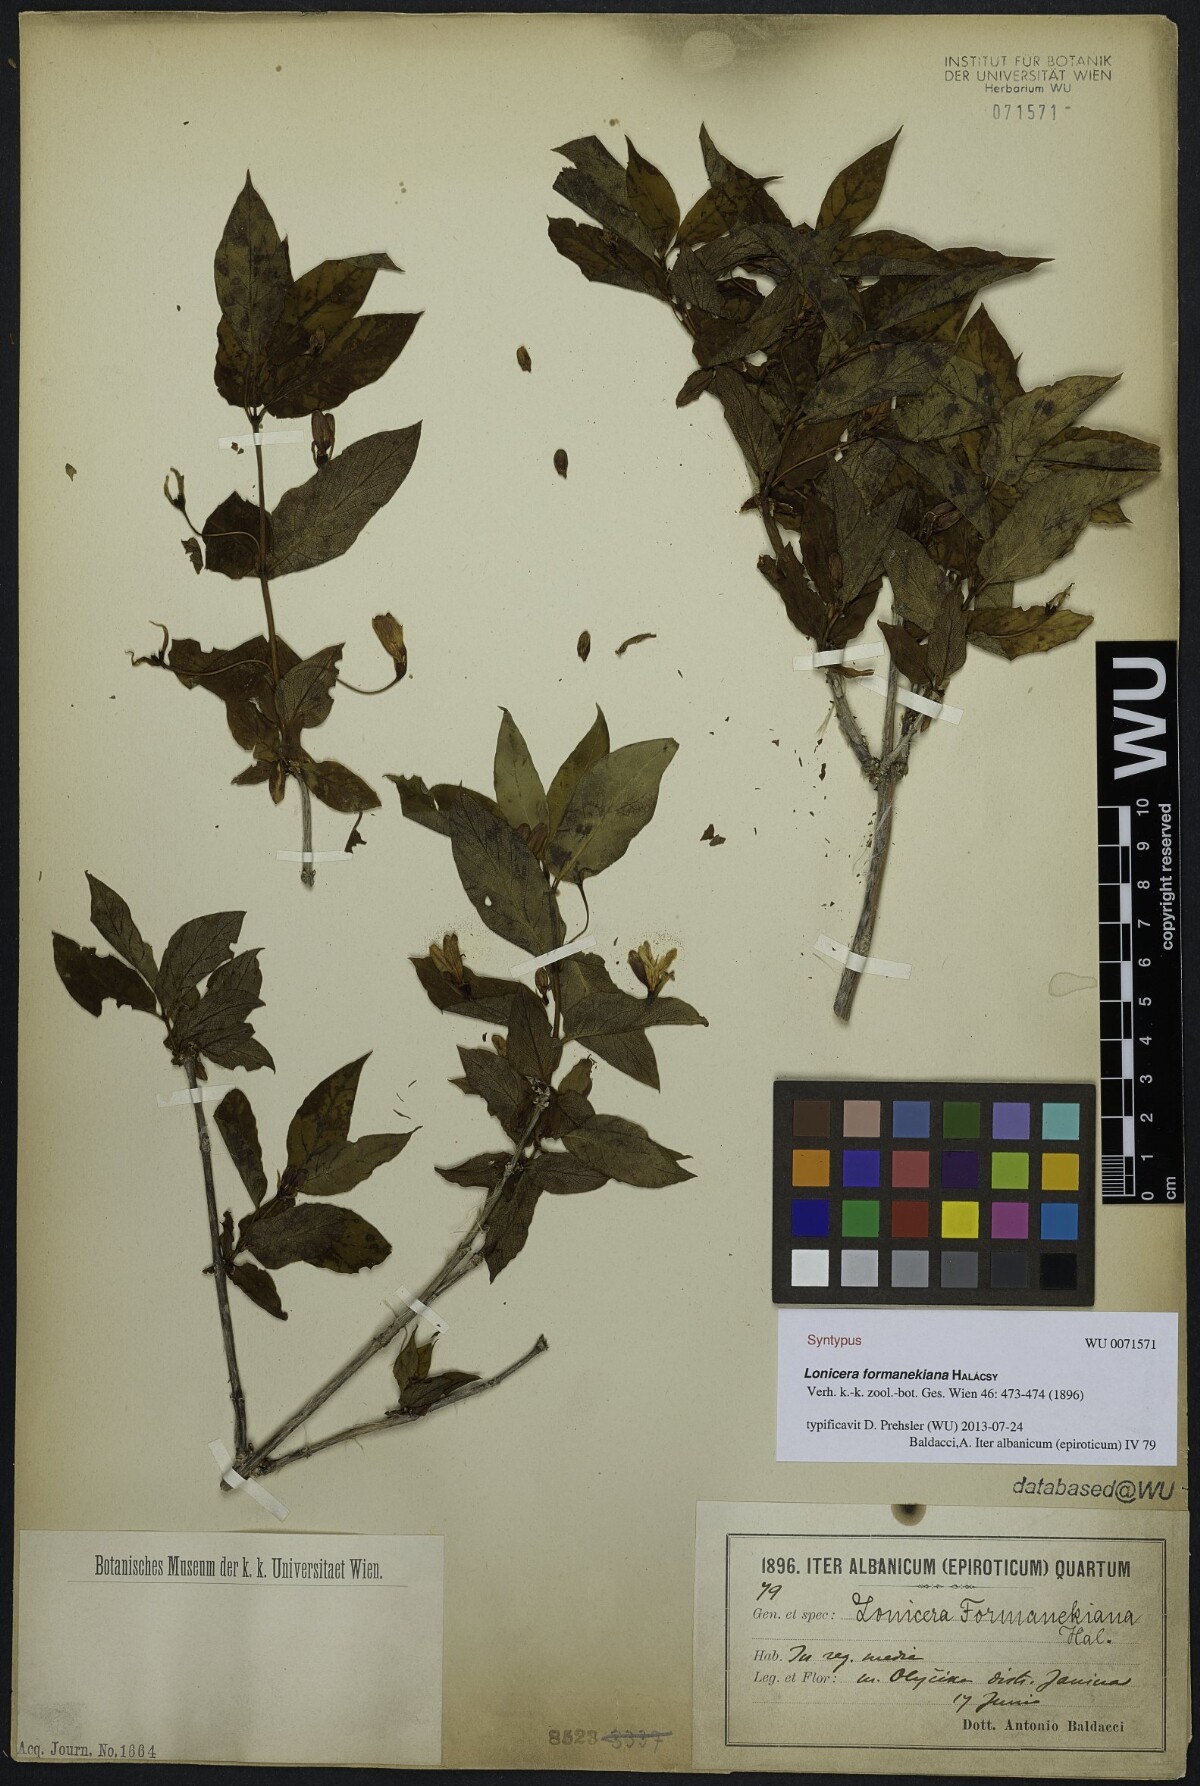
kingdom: Plantae
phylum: Tracheophyta
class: Magnoliopsida
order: Dipsacales
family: Caprifoliaceae
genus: Lonicera
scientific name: Lonicera alpigena
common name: Alpine honeysuckle
